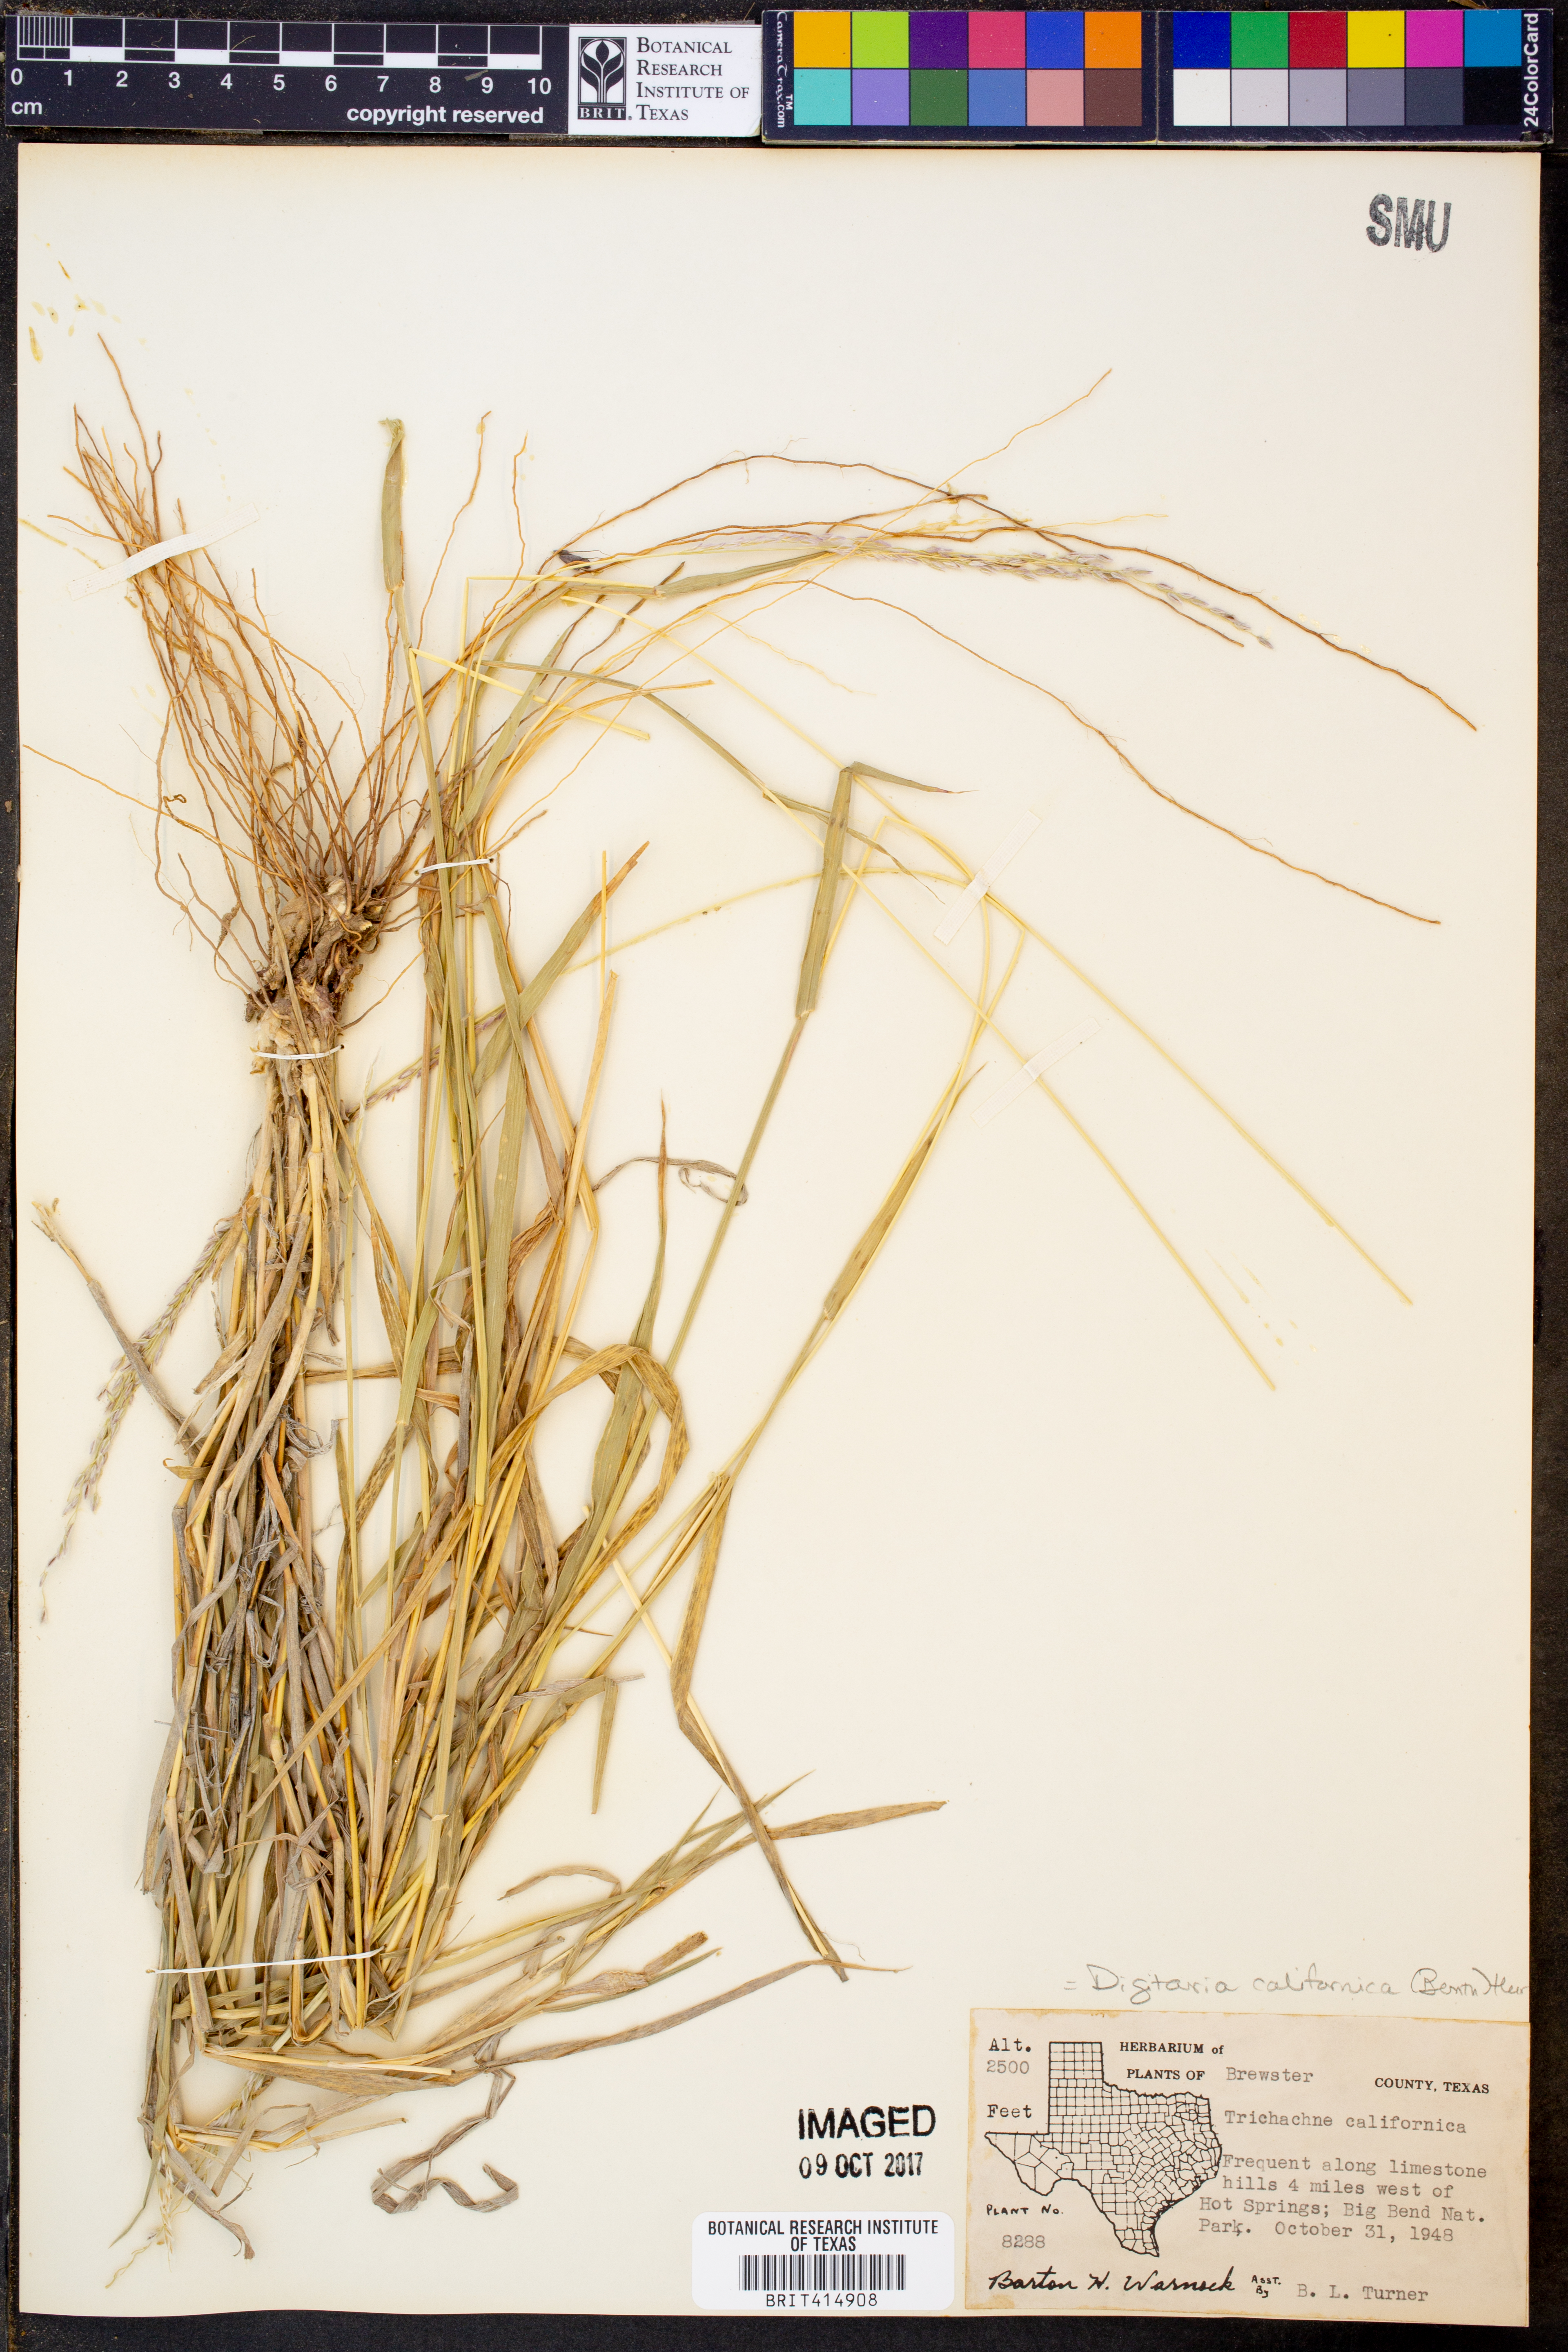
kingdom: Plantae
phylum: Tracheophyta
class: Liliopsida
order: Poales
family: Poaceae
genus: Digitaria
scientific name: Digitaria californica
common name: Arizona cottontop
